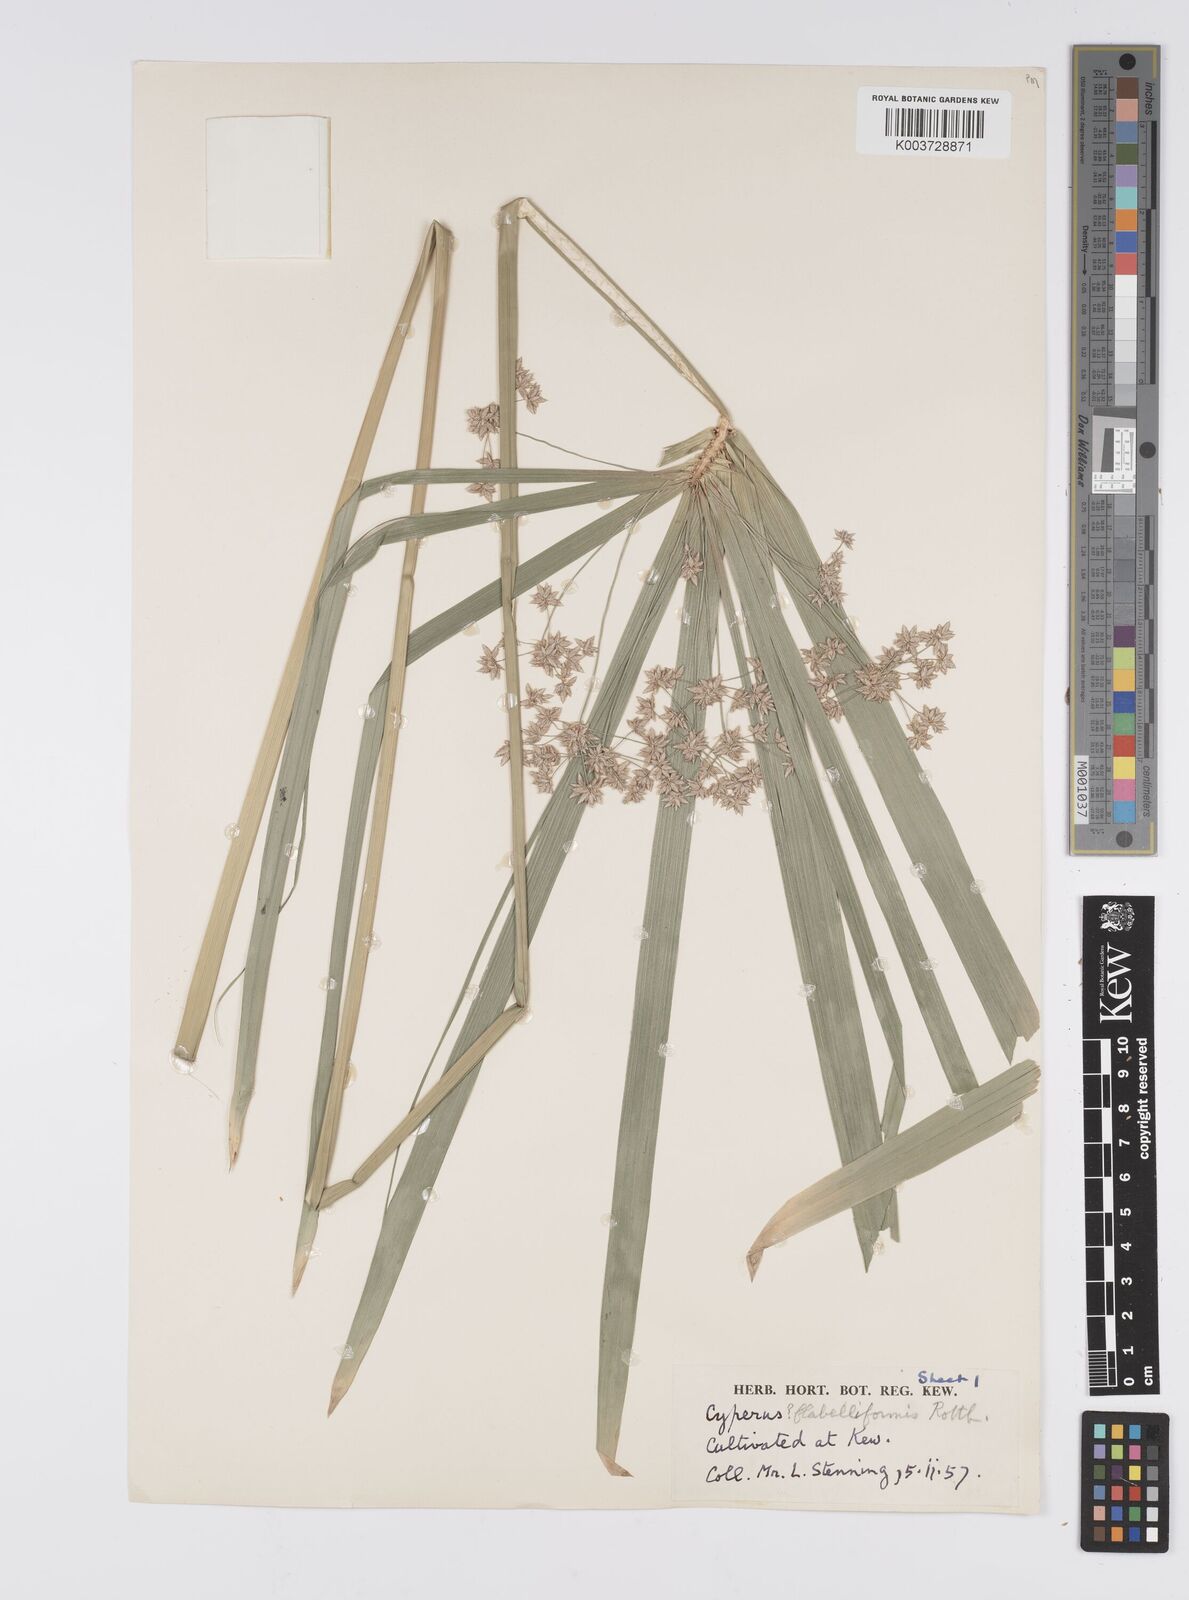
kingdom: Plantae
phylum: Tracheophyta
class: Liliopsida
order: Poales
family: Cyperaceae
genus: Cyperus
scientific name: Cyperus alternifolius
